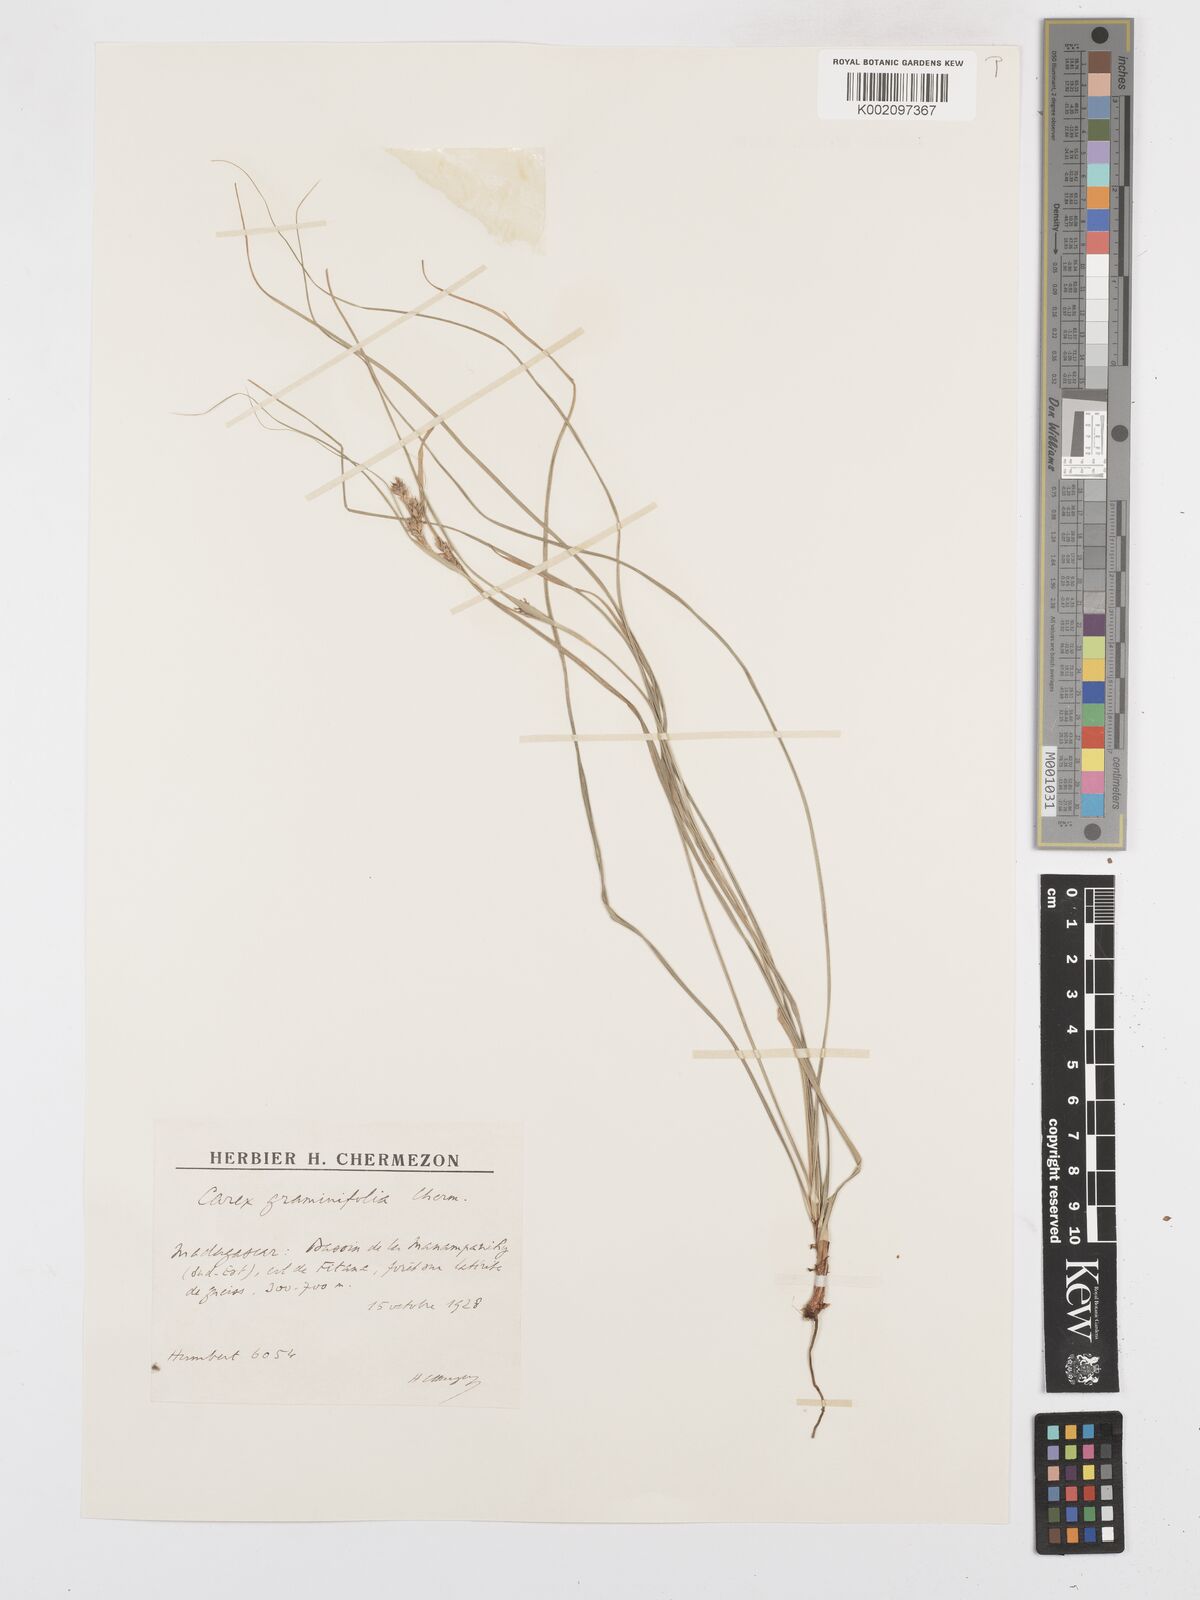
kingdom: Plantae
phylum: Tracheophyta
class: Liliopsida
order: Poales
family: Cyperaceae
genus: Carex
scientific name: Carex graminifolia
